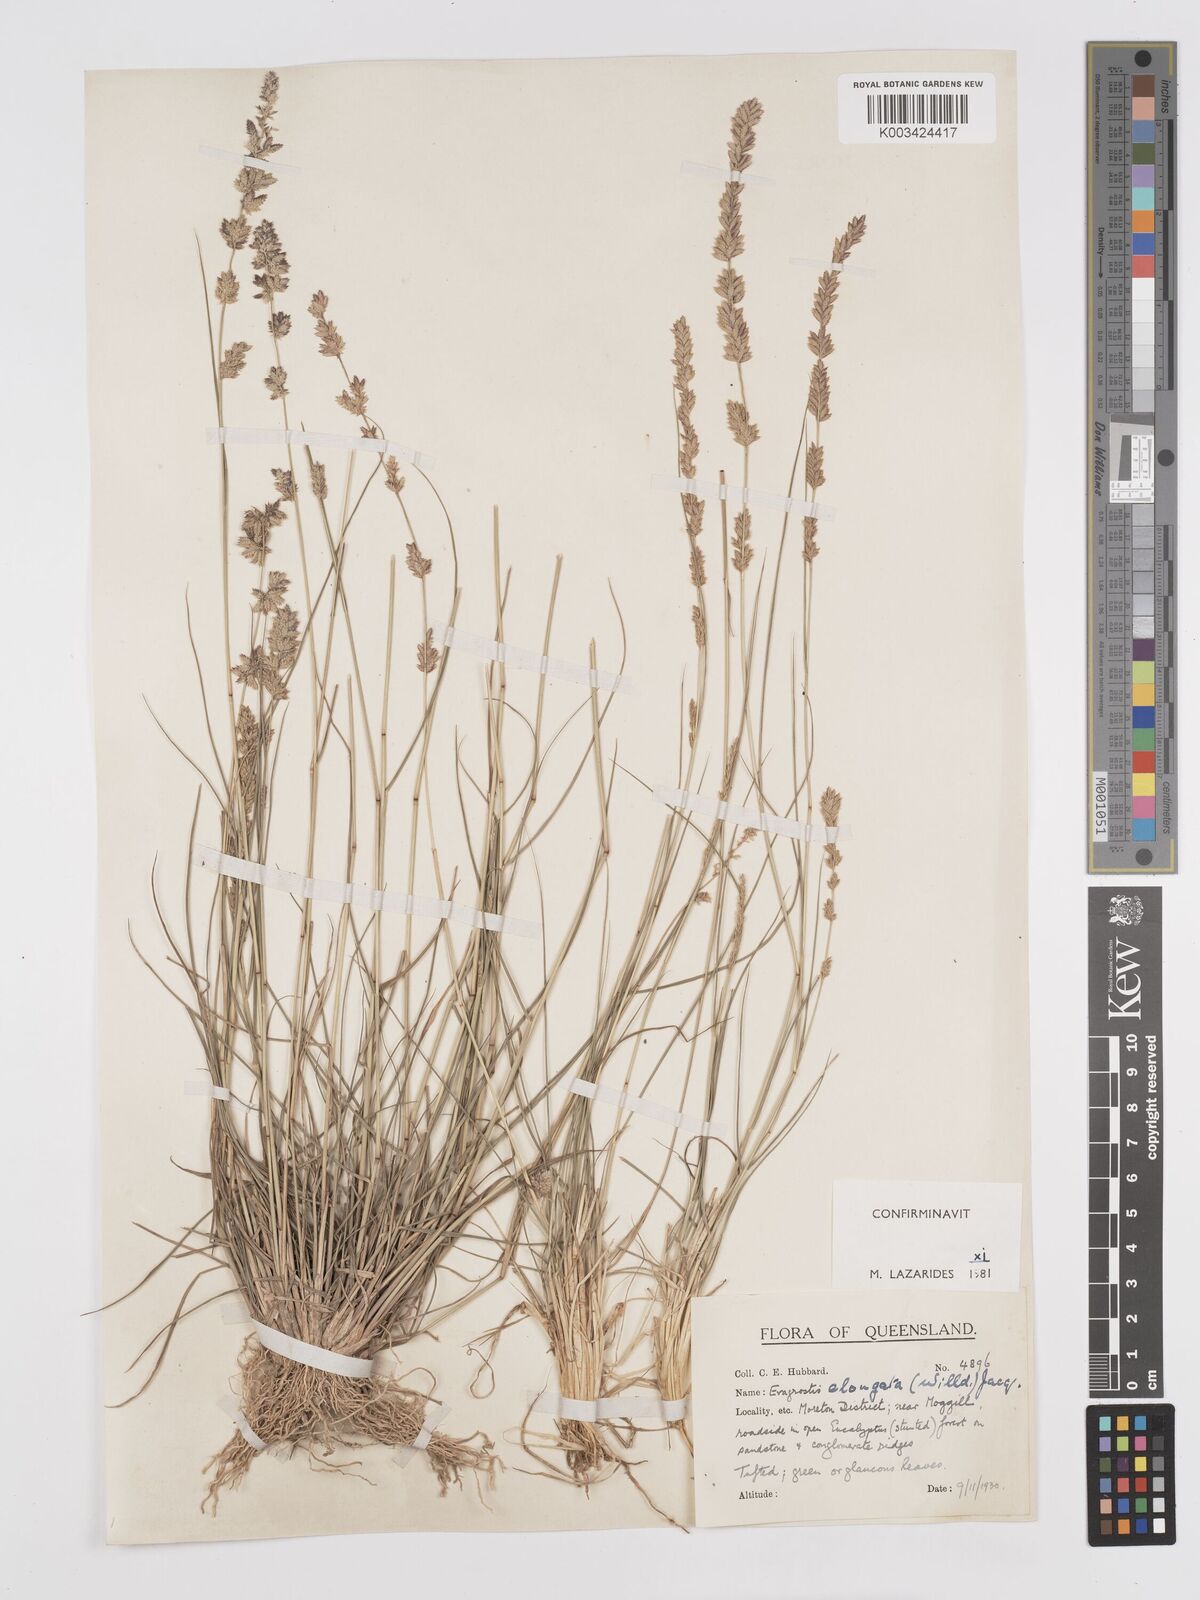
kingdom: Plantae
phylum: Tracheophyta
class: Liliopsida
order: Poales
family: Poaceae
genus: Eragrostis
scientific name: Eragrostis elongata
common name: Long lovegrass
